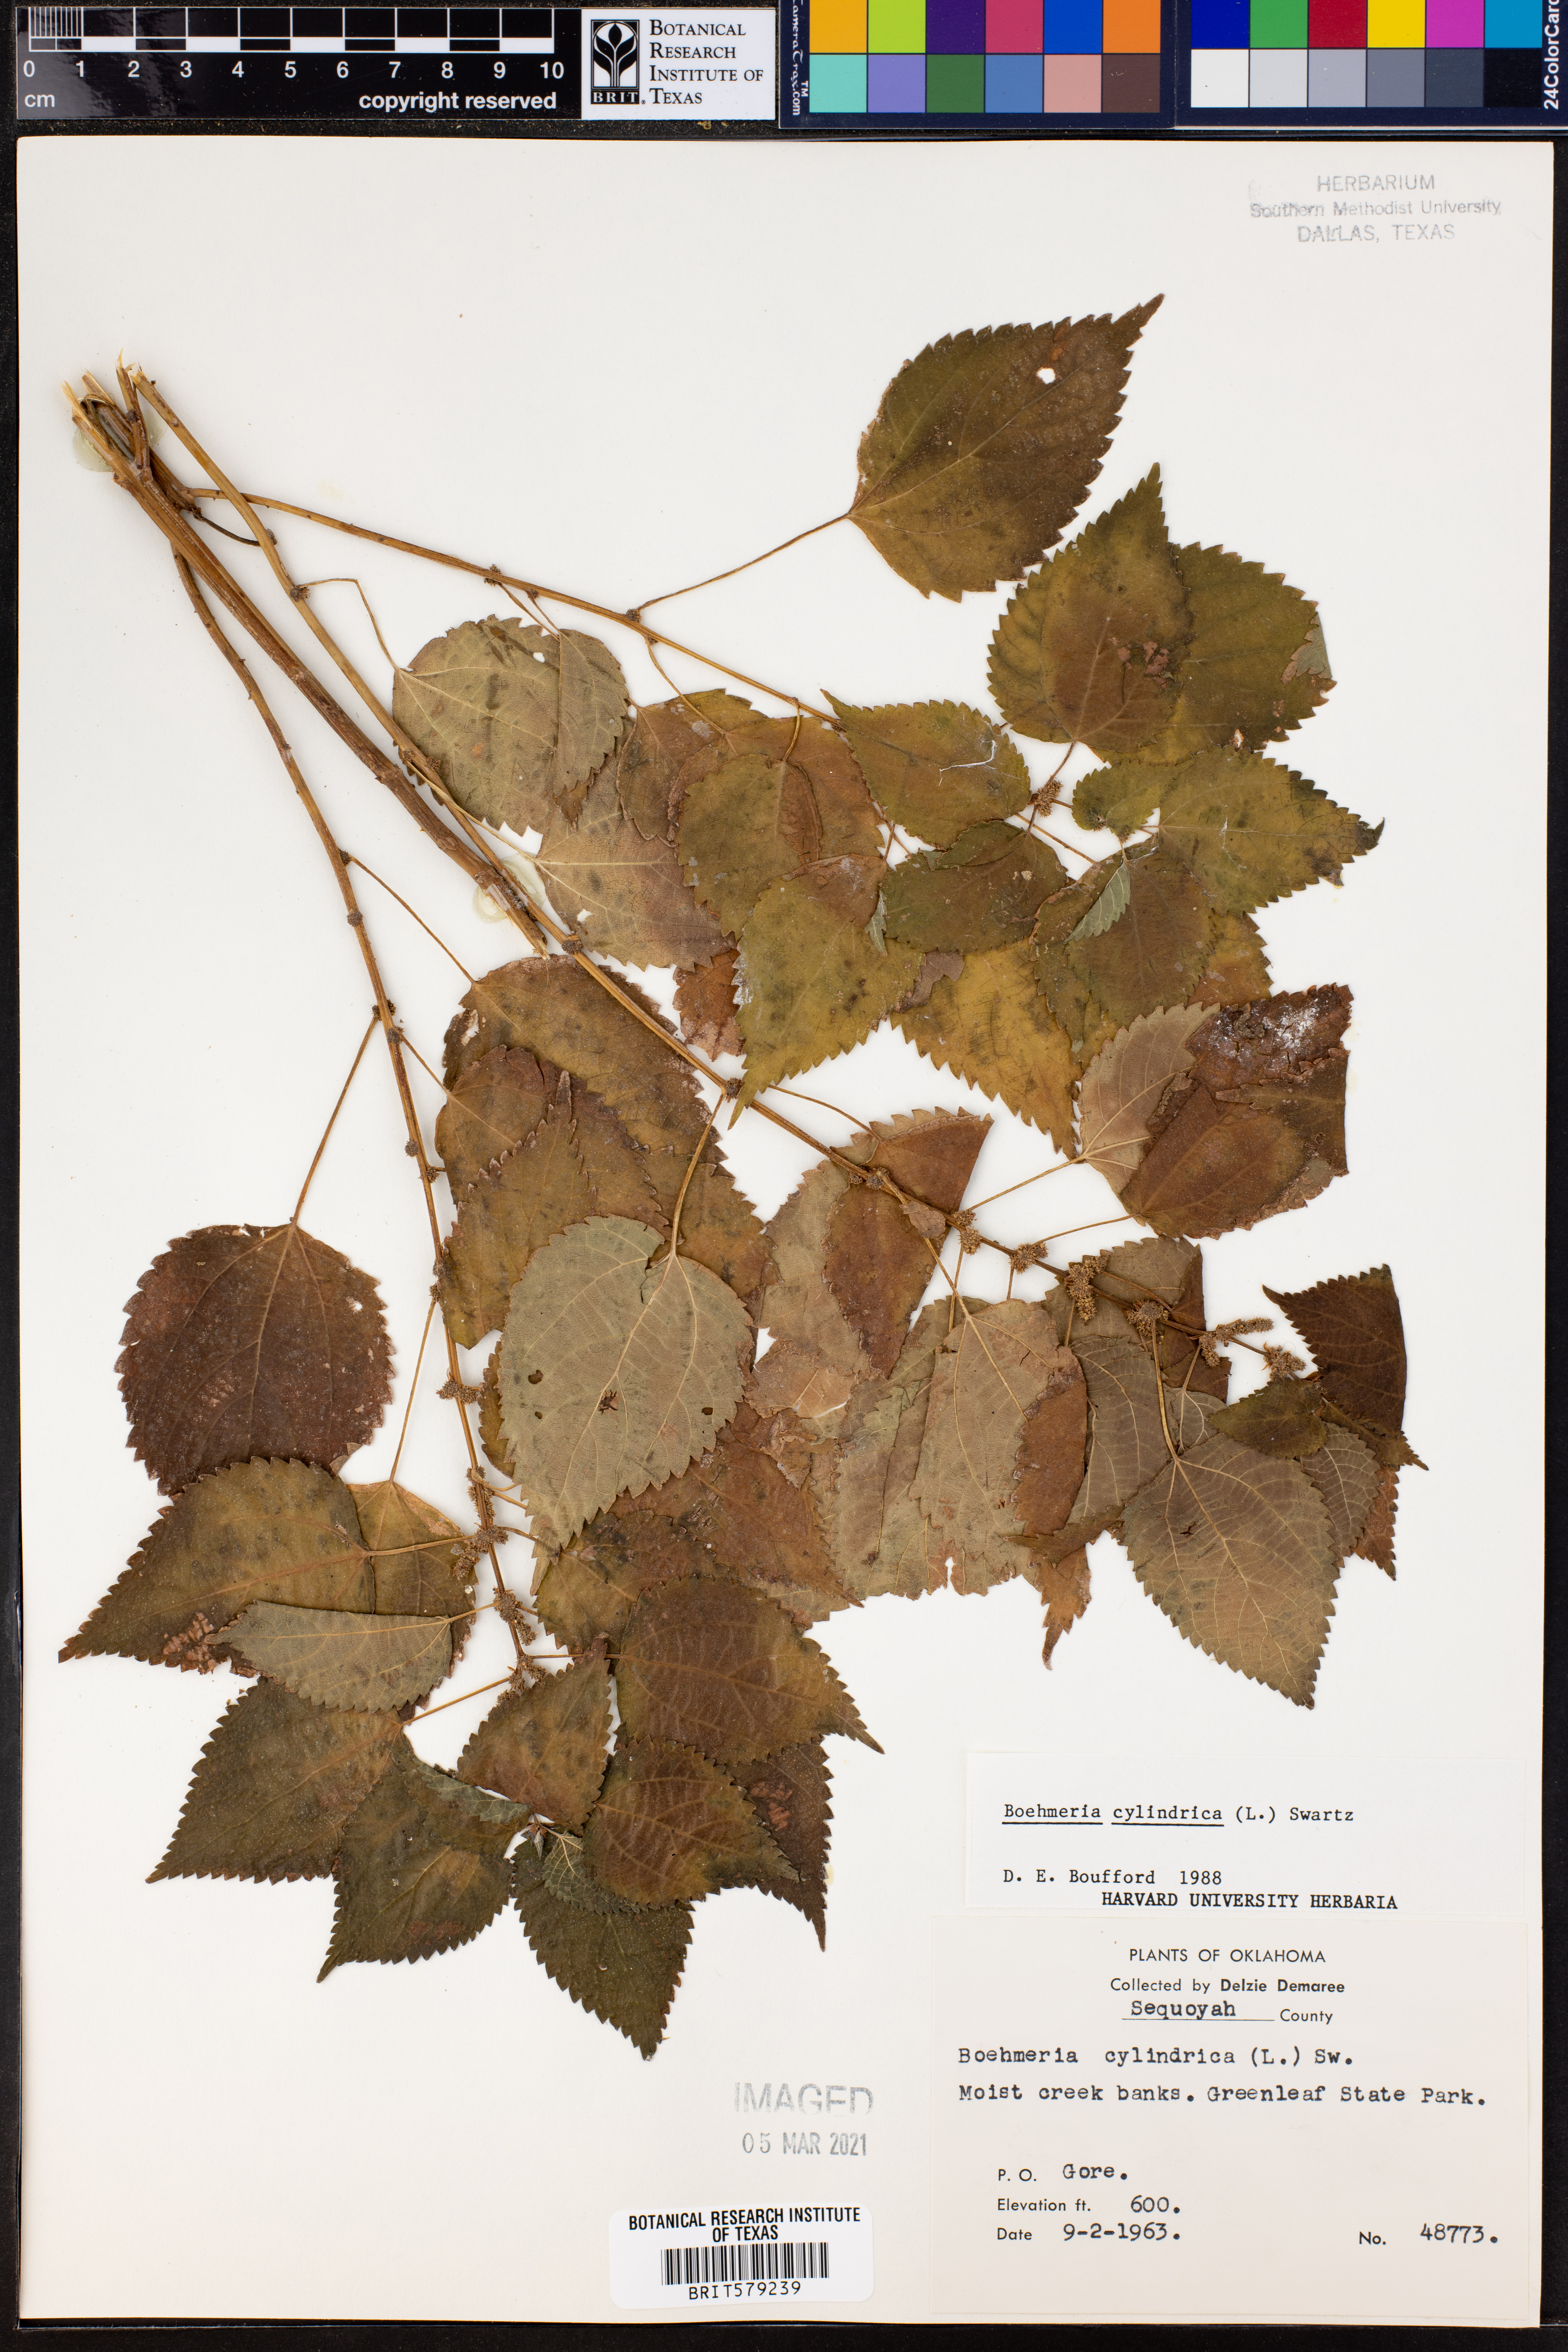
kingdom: Plantae
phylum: Tracheophyta
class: Magnoliopsida
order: Rosales
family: Urticaceae
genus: Boehmeria
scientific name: Boehmeria cylindrica
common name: Bog-hemp
